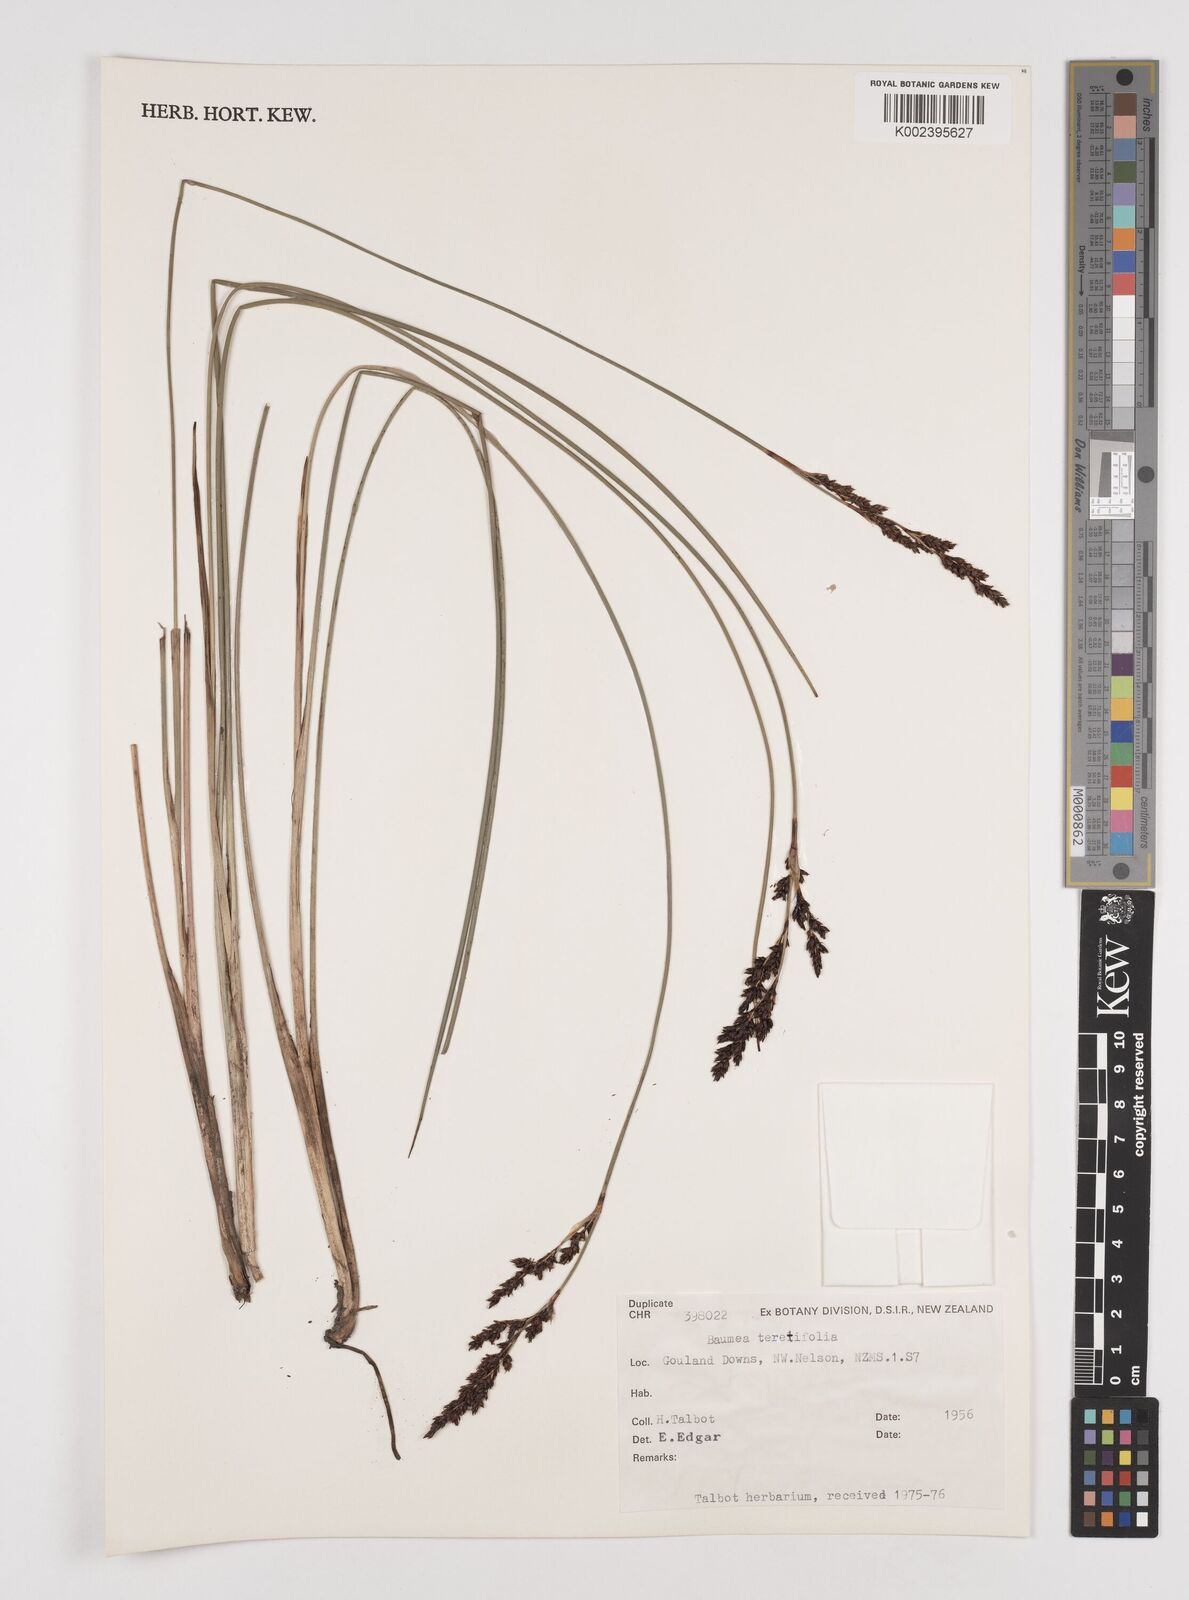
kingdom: Plantae
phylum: Tracheophyta
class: Liliopsida
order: Poales
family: Cyperaceae
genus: Machaerina
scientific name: Machaerina teretifolia
